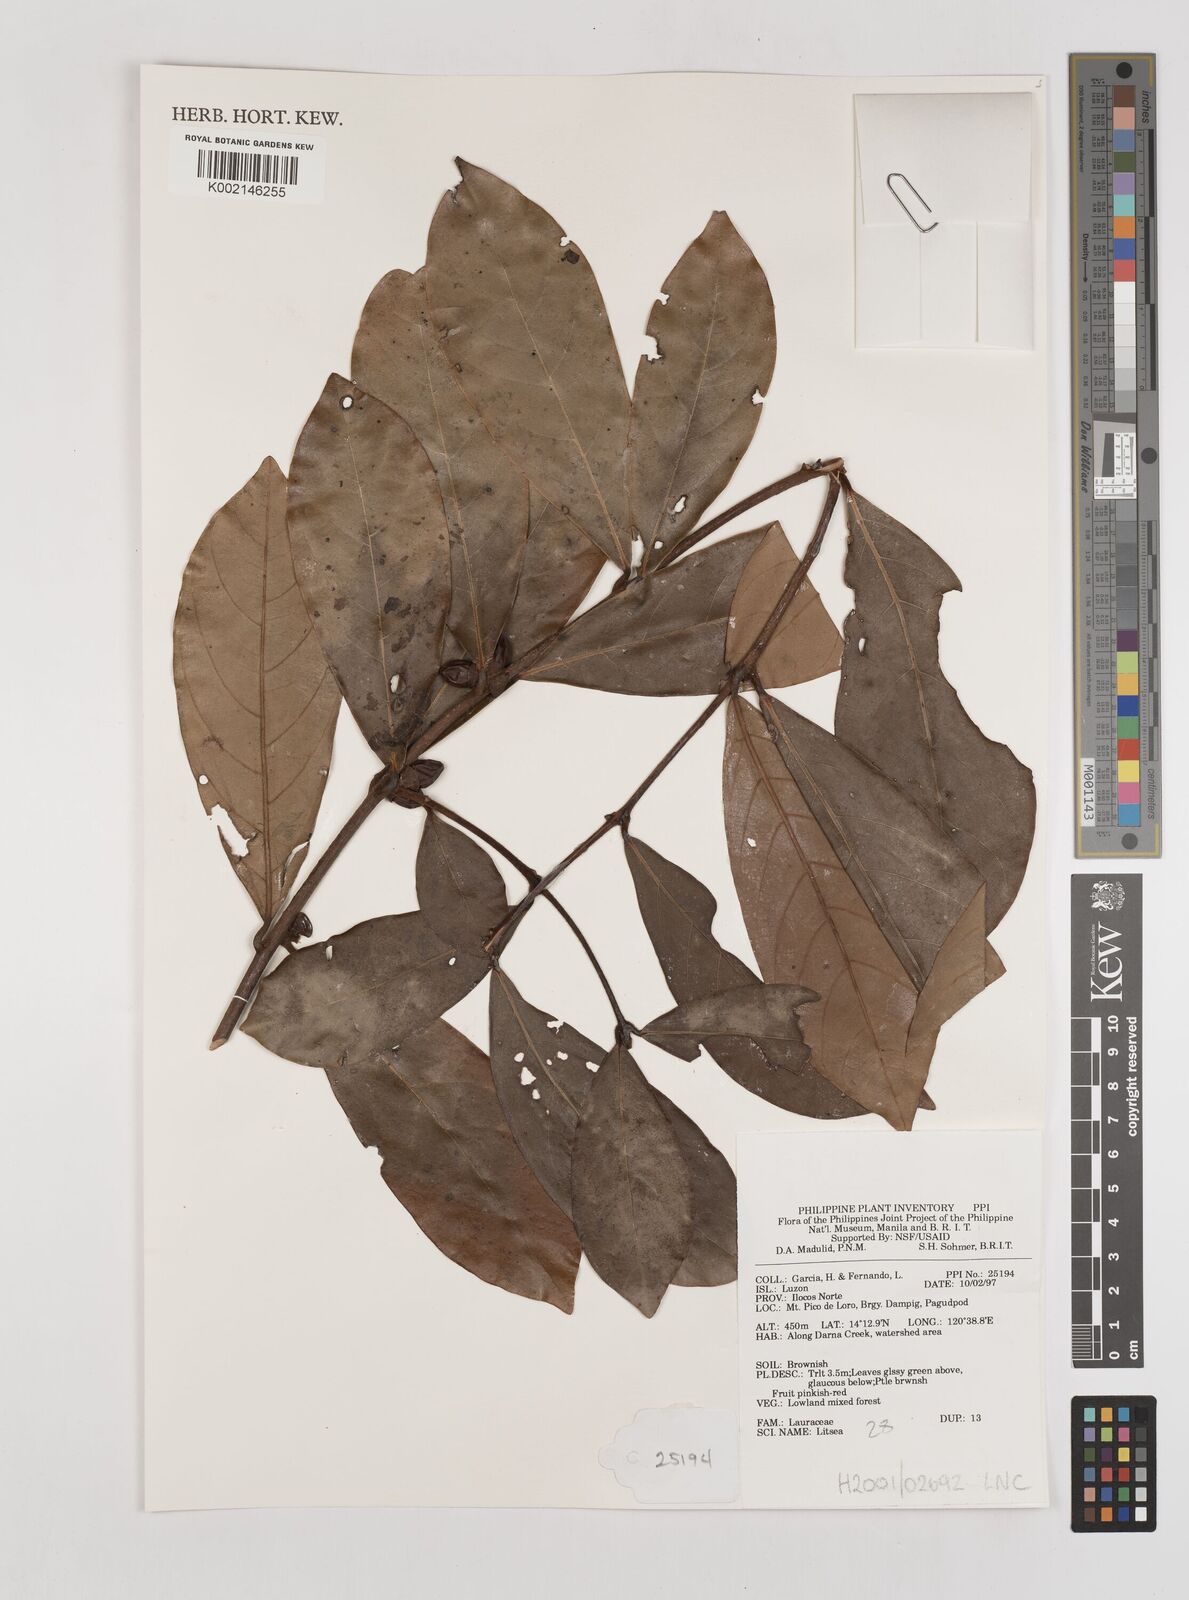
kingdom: Plantae
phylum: Tracheophyta
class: Magnoliopsida
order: Laurales
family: Lauraceae
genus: Litsea
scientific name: Litsea
